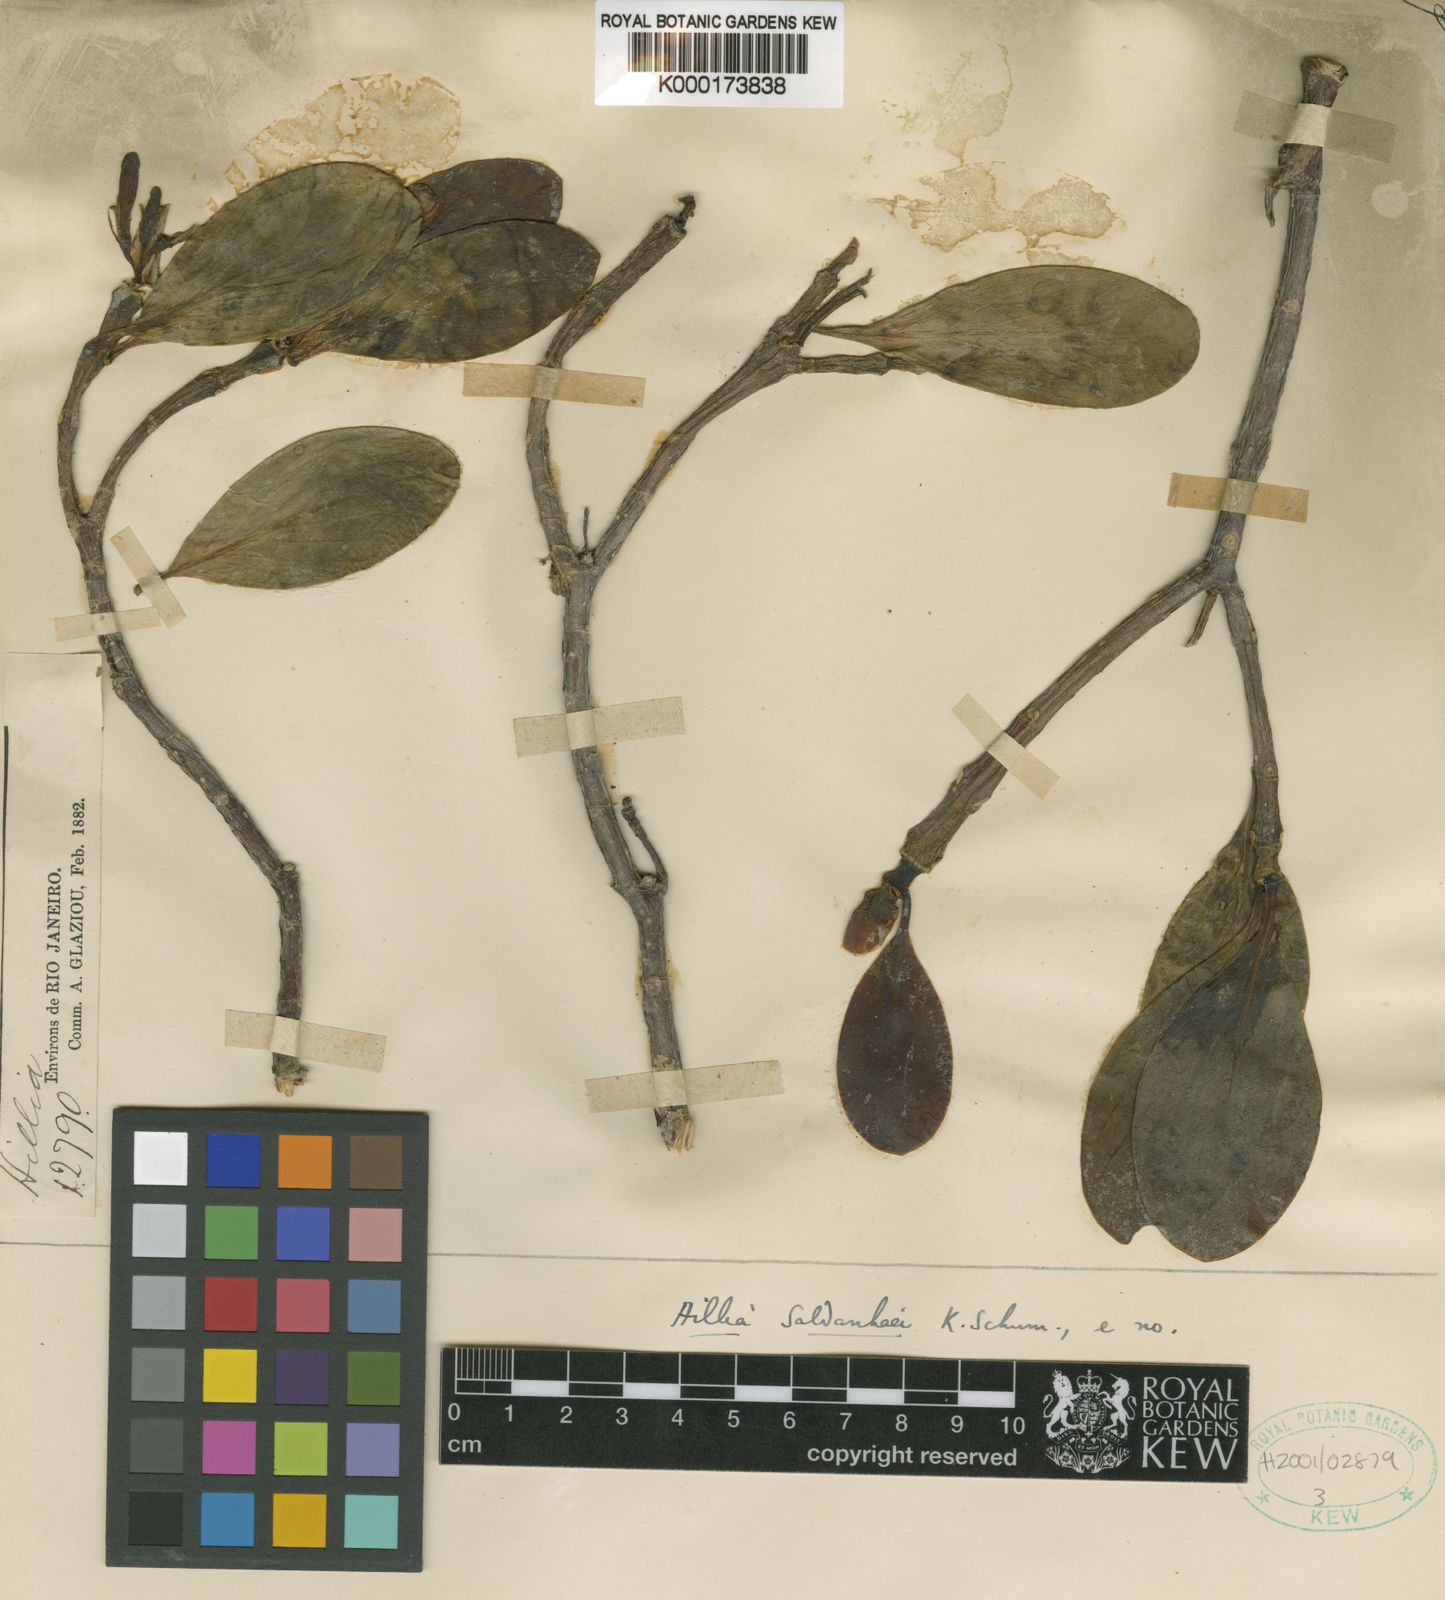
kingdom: Plantae
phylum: Tracheophyta
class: Magnoliopsida
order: Gentianales
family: Rubiaceae
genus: Hillia
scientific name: Hillia saldanhaei
